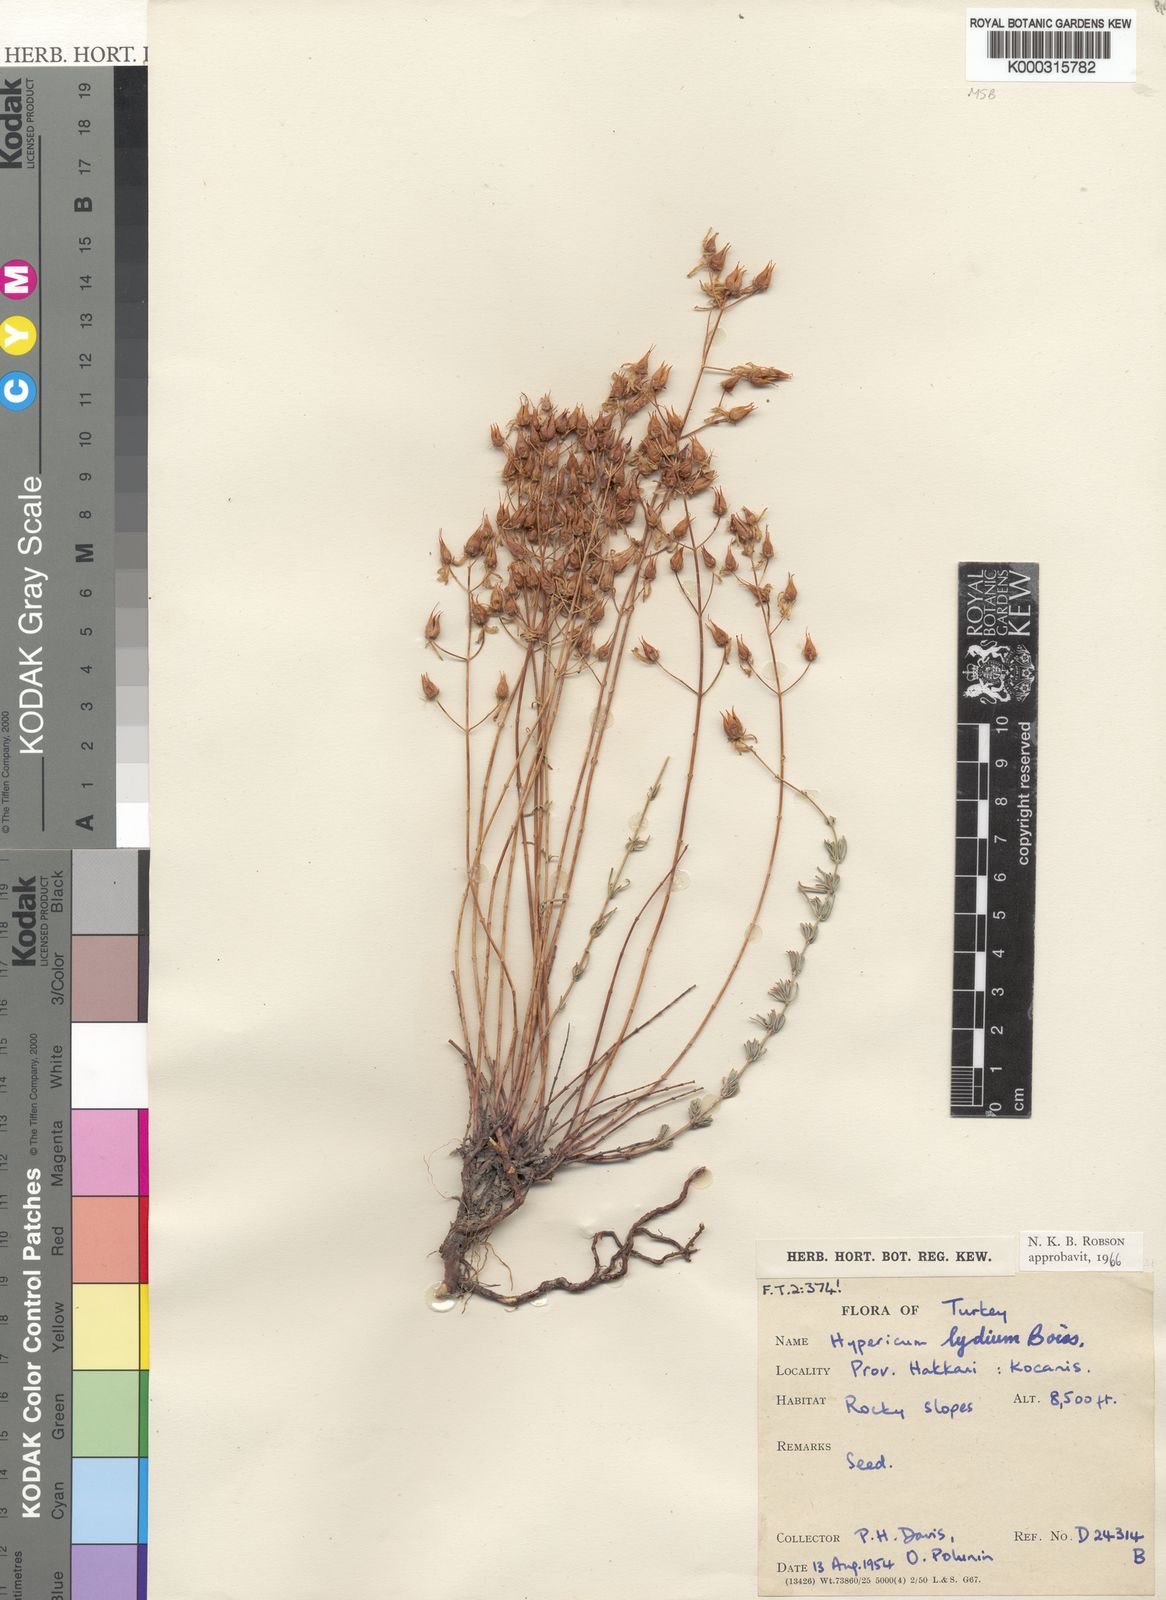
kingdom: Plantae
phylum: Tracheophyta
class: Magnoliopsida
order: Malpighiales
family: Hypericaceae
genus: Hypericum
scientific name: Hypericum lydium
